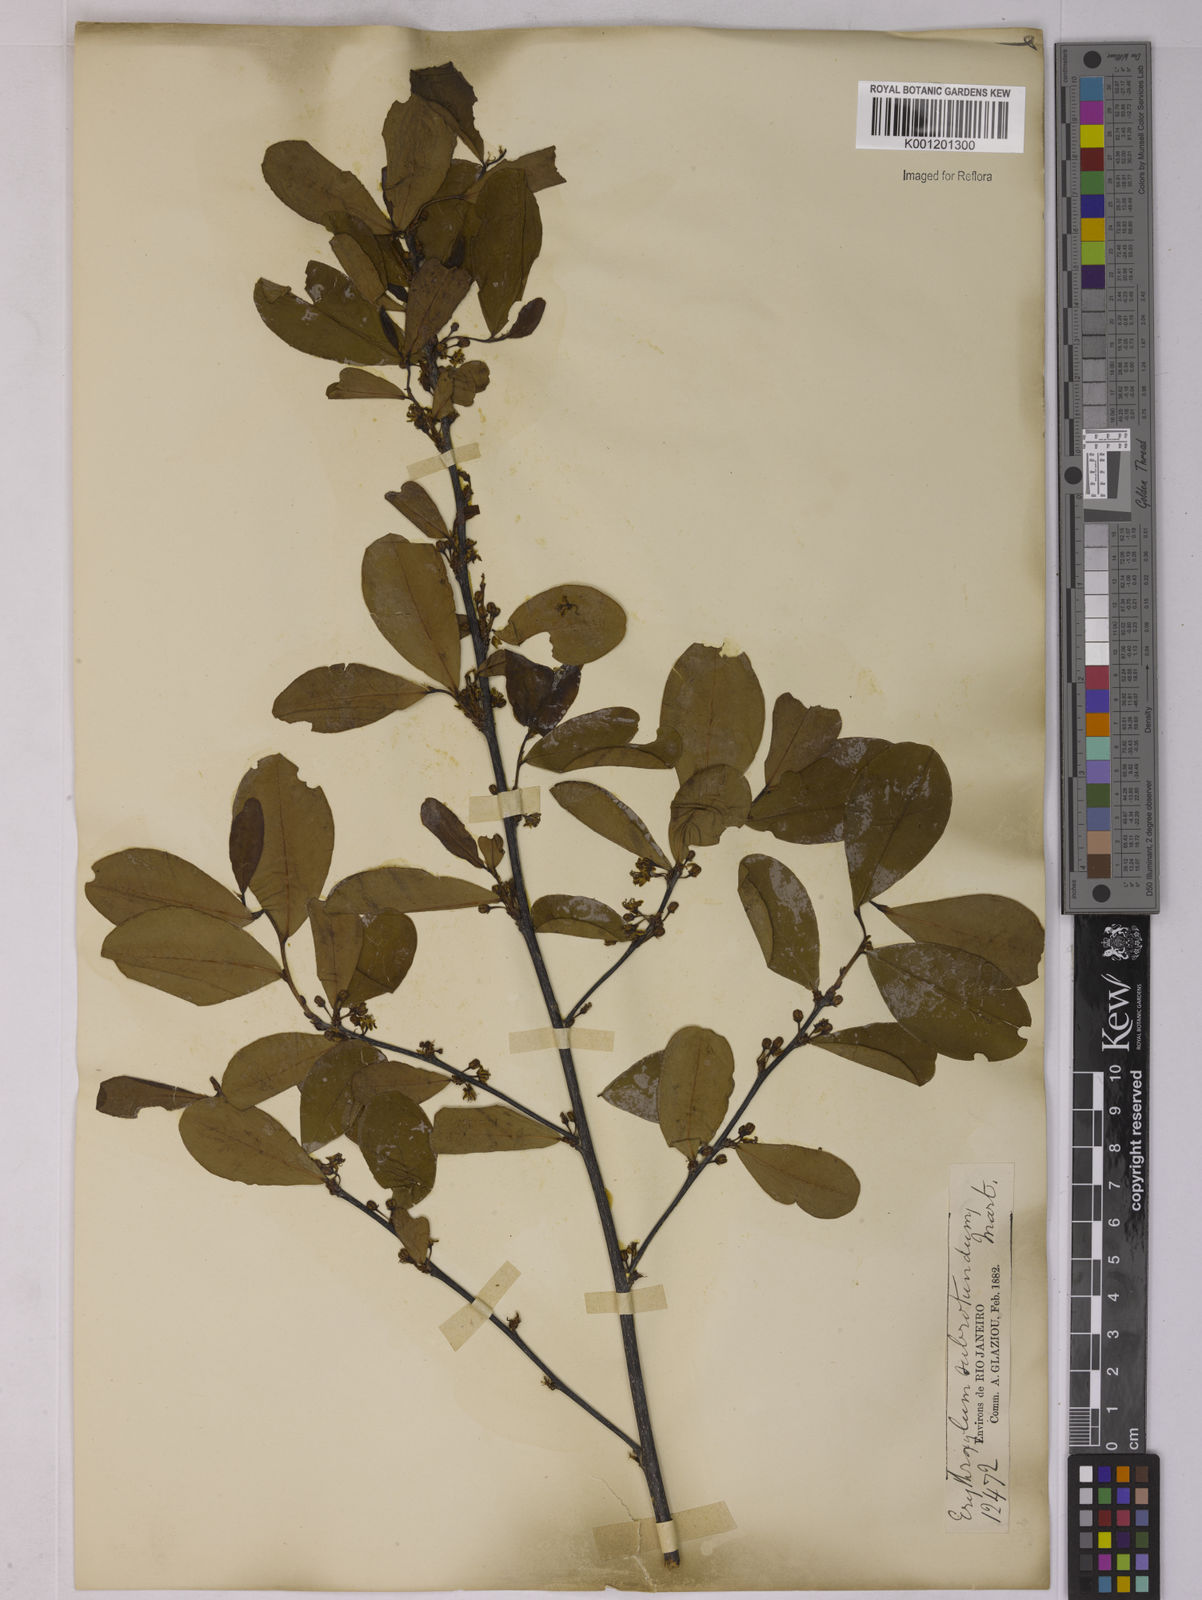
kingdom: Plantae
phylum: Tracheophyta
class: Magnoliopsida
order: Malpighiales
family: Erythroxylaceae
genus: Erythroxylum
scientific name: Erythroxylum subrotundum
